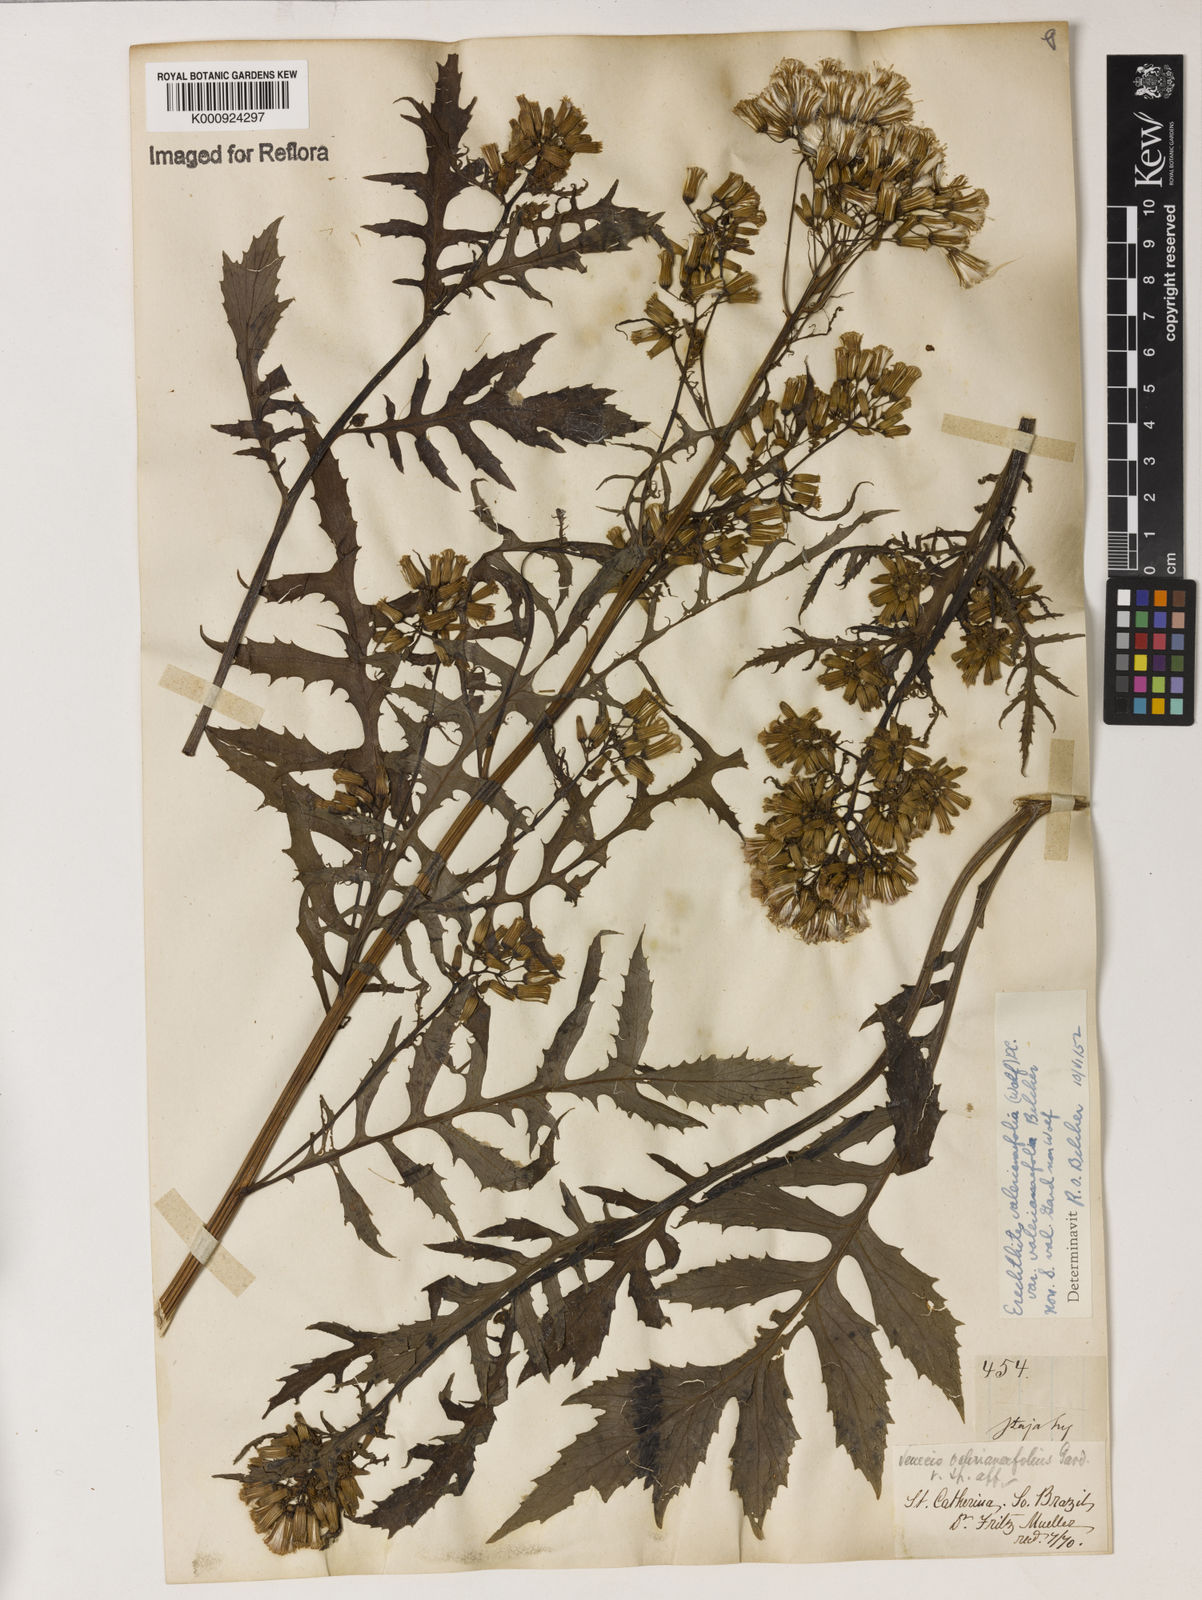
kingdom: Plantae
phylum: Tracheophyta
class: Magnoliopsida
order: Asterales
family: Asteraceae
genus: Erechtites
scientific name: Erechtites valerianifolius
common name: Tropical burnweed
